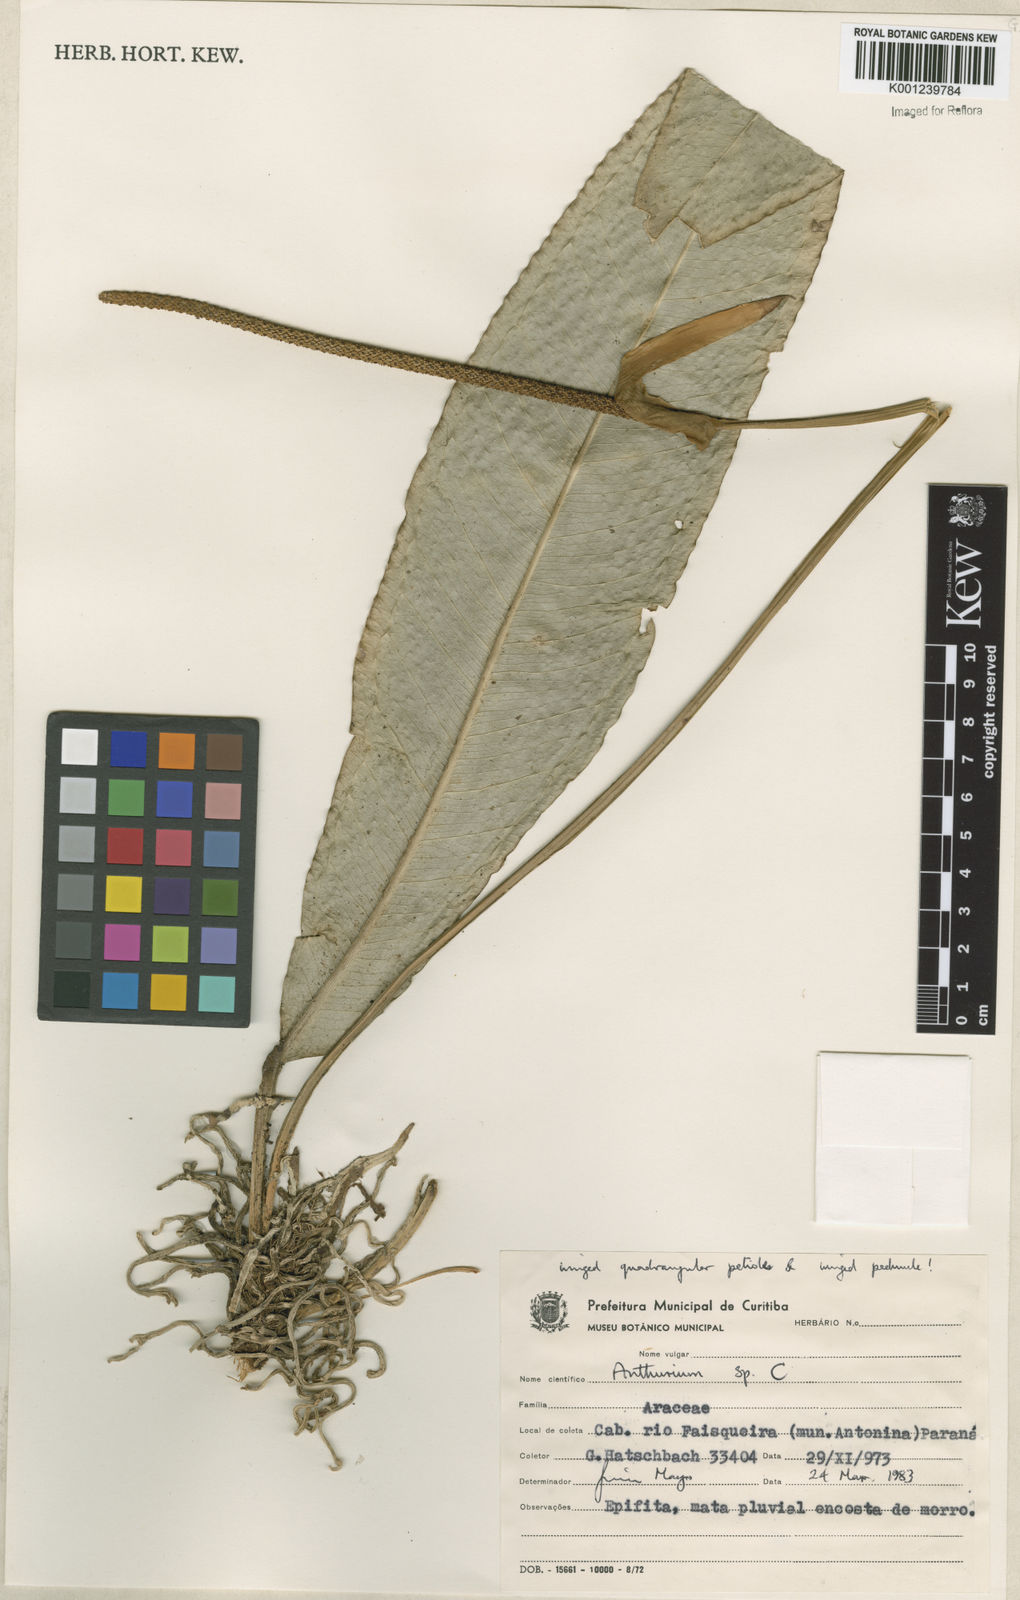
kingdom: Plantae
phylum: Tracheophyta
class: Liliopsida
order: Alismatales
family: Araceae
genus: Anthurium
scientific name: Anthurium
